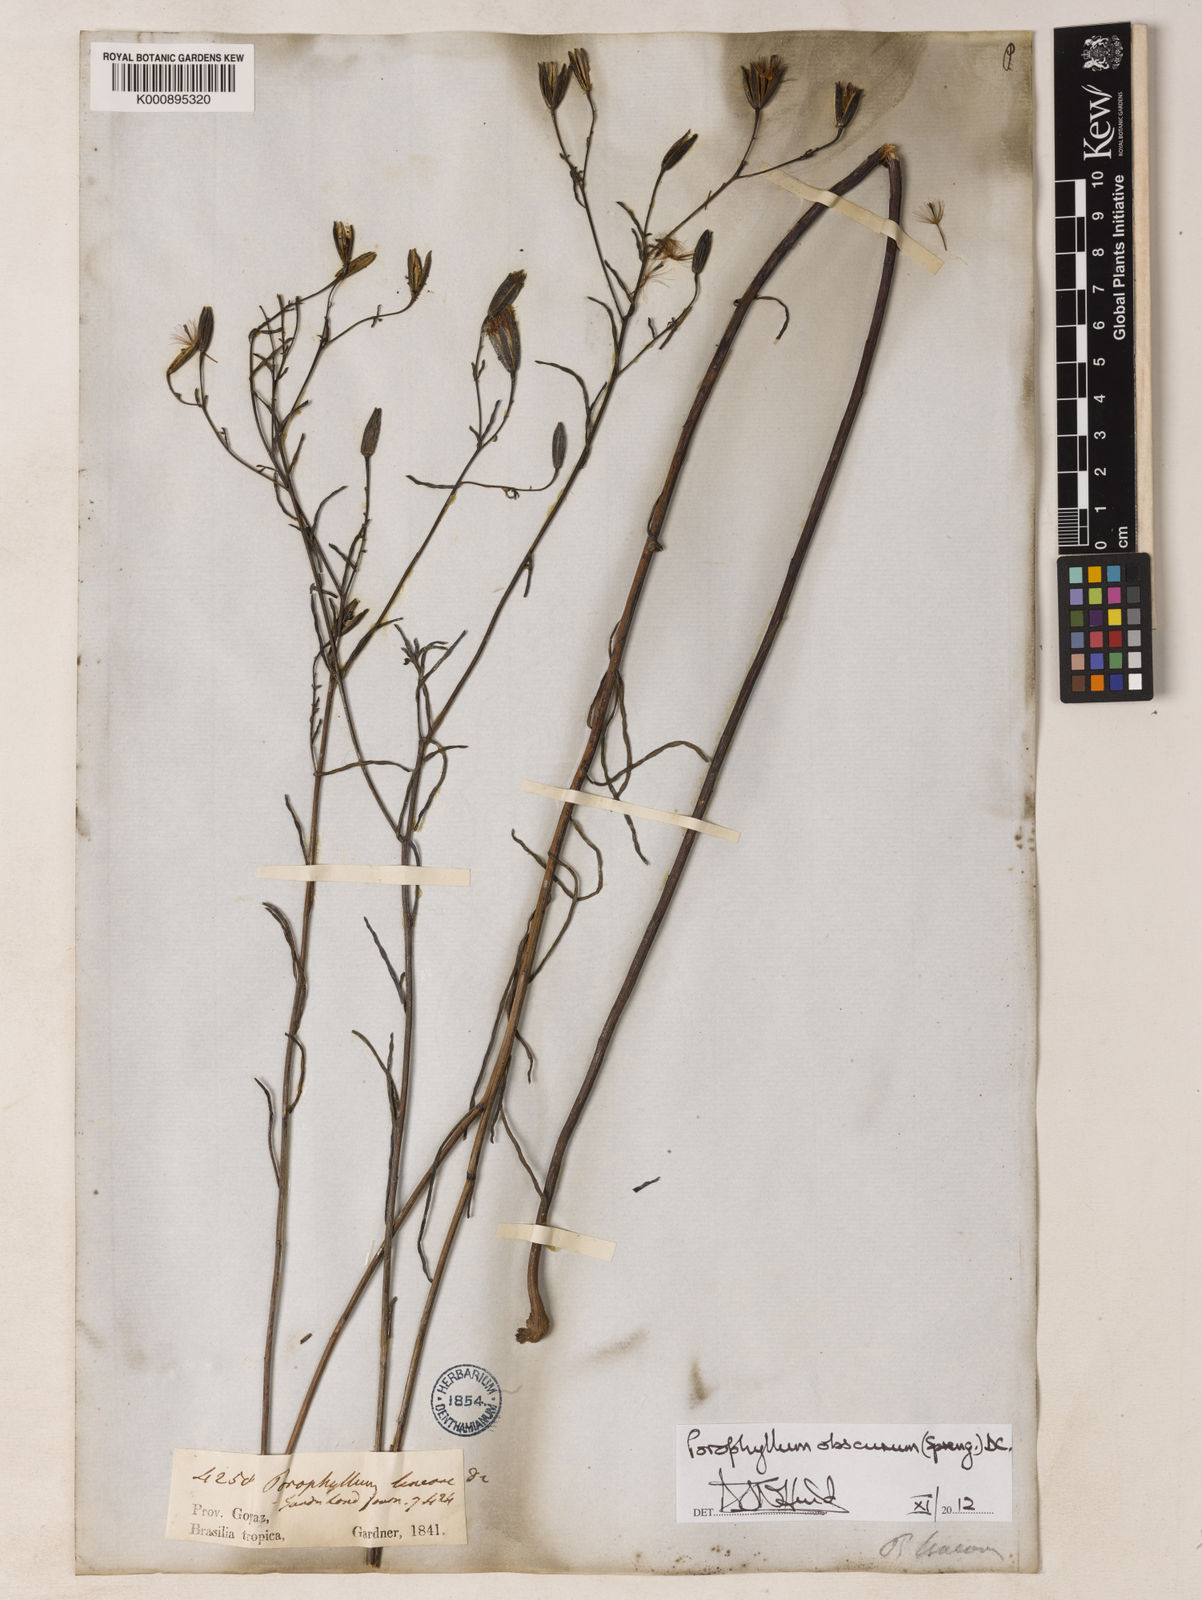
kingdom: Plantae
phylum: Tracheophyta
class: Magnoliopsida
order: Asterales
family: Asteraceae
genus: Porophyllum
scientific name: Porophyllum obscurum
